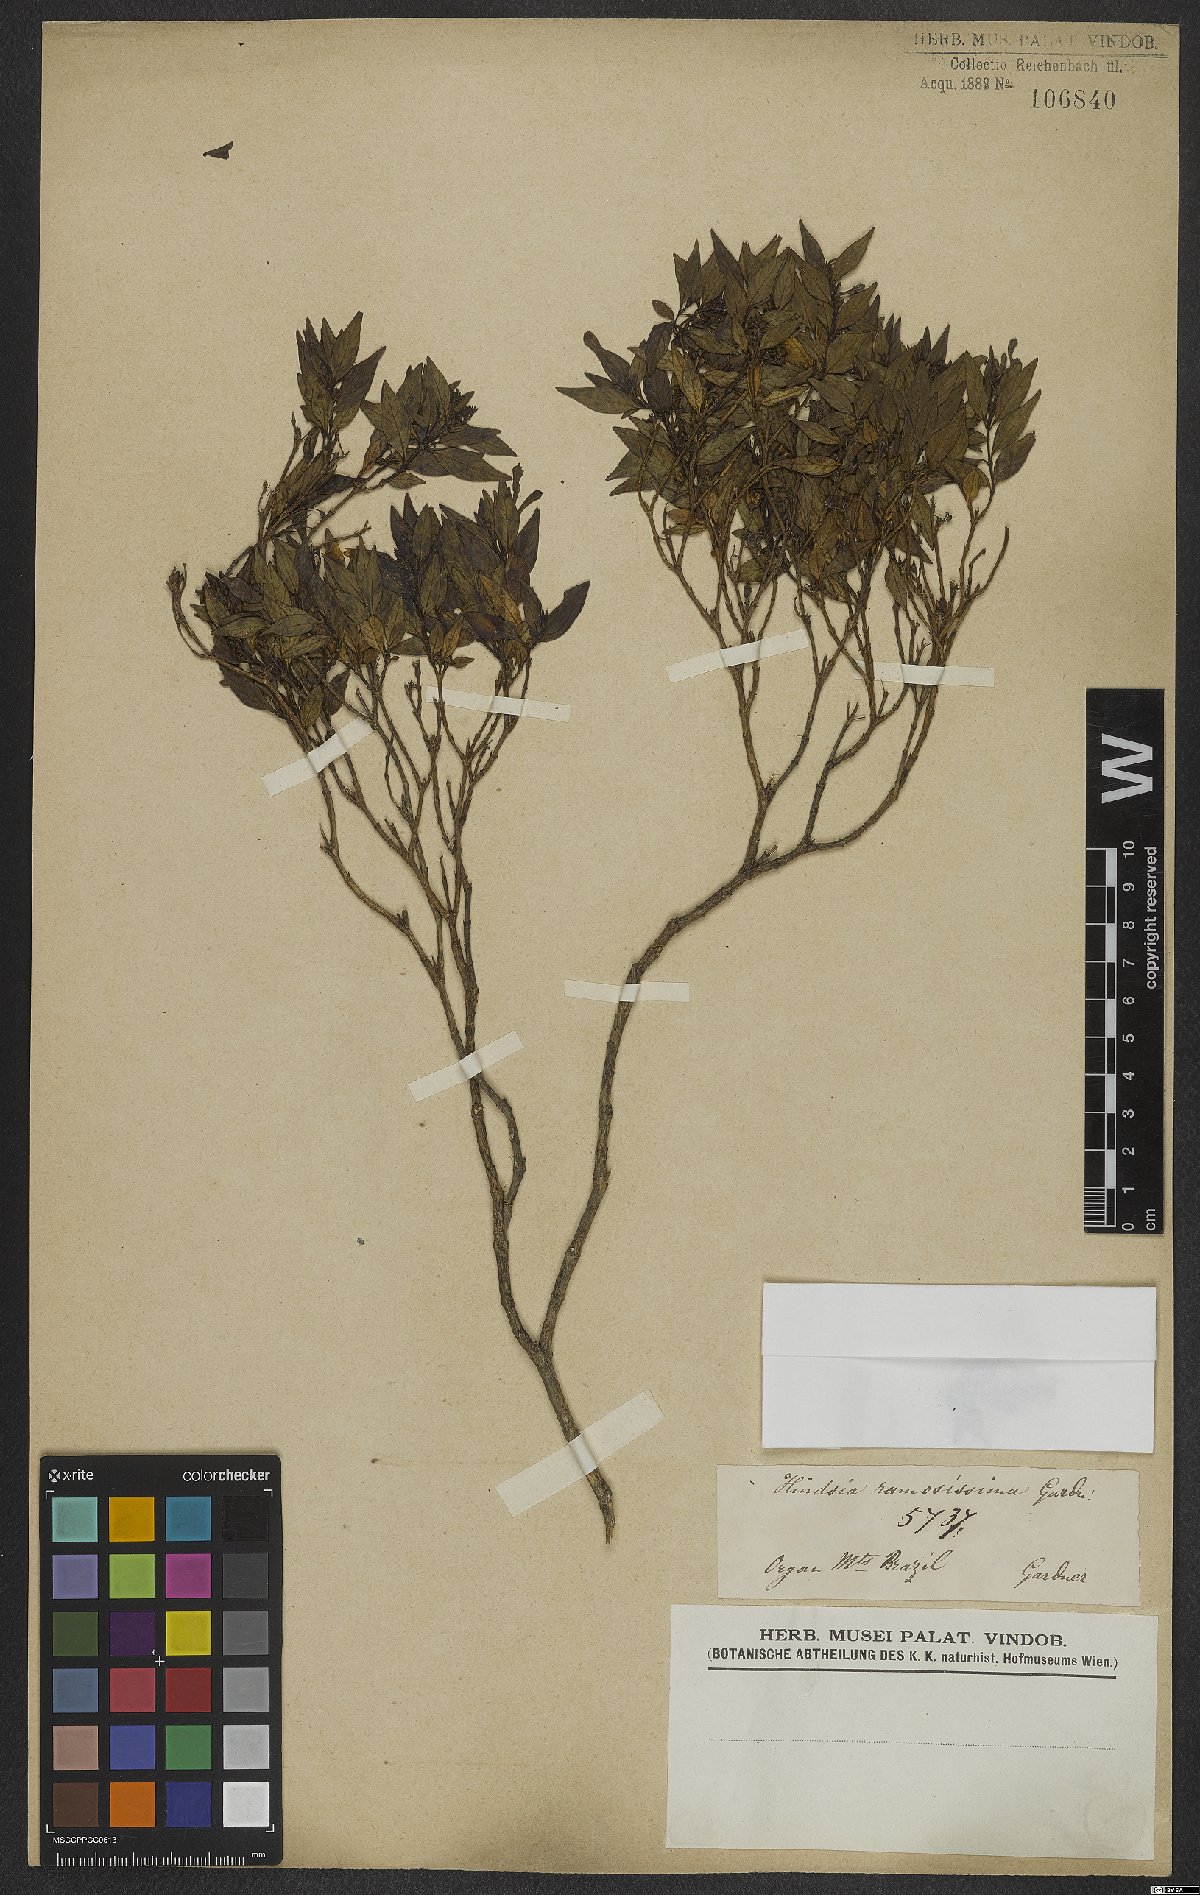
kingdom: Plantae
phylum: Tracheophyta
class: Magnoliopsida
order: Gentianales
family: Rubiaceae
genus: Hindsia
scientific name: Hindsia ramosissima
